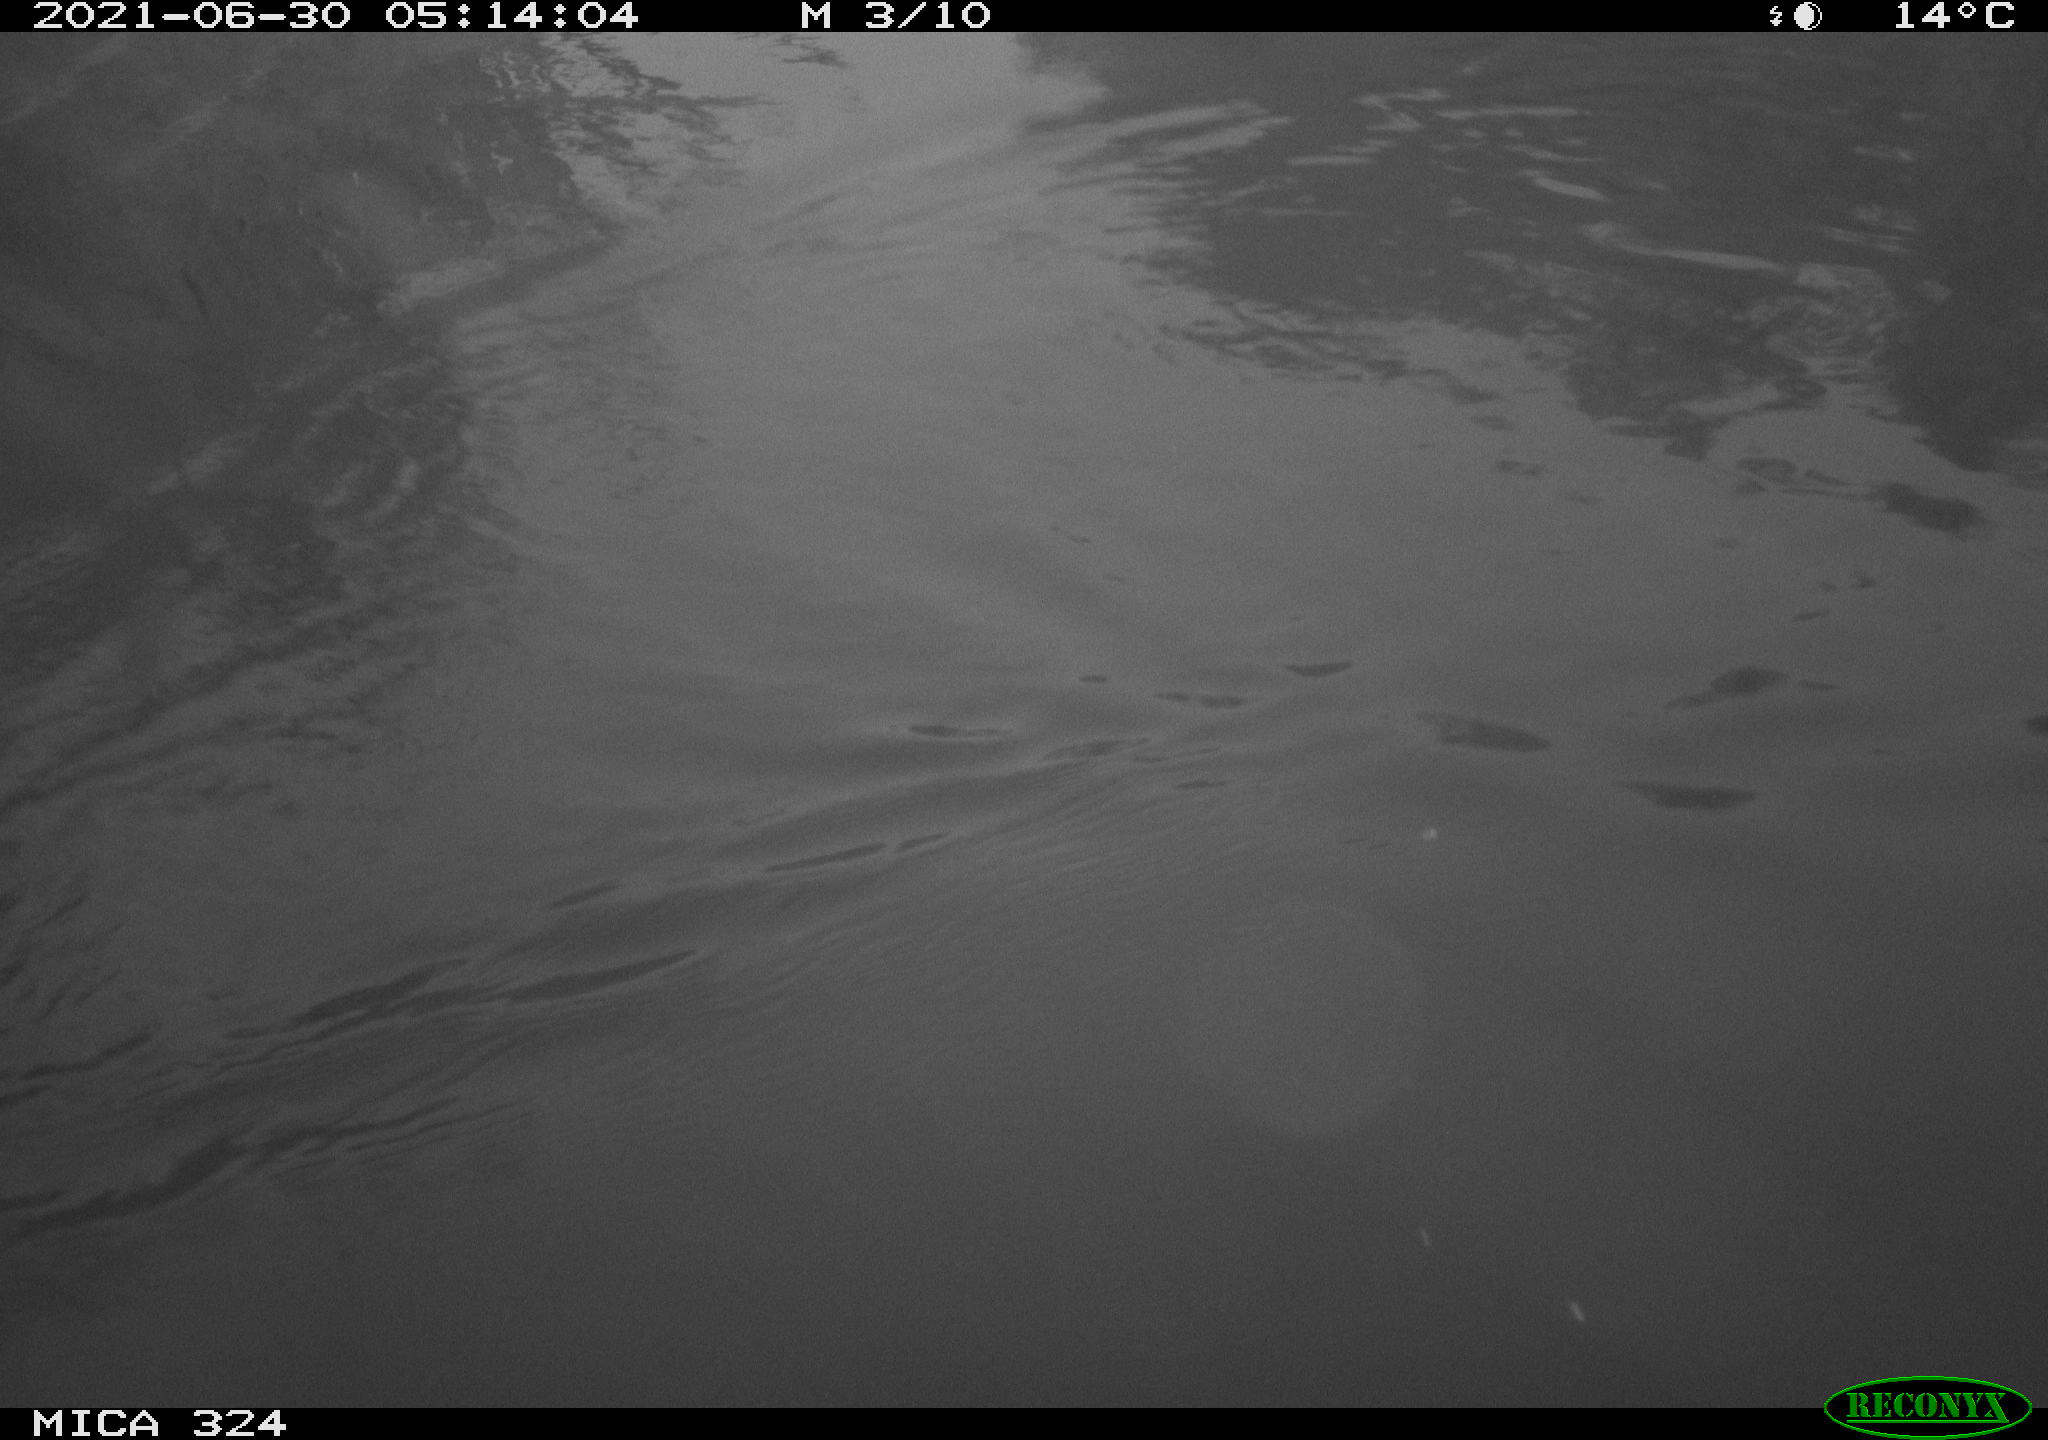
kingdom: Animalia
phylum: Chordata
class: Aves
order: Gruiformes
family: Rallidae
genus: Gallinula
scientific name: Gallinula chloropus
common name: Common moorhen
